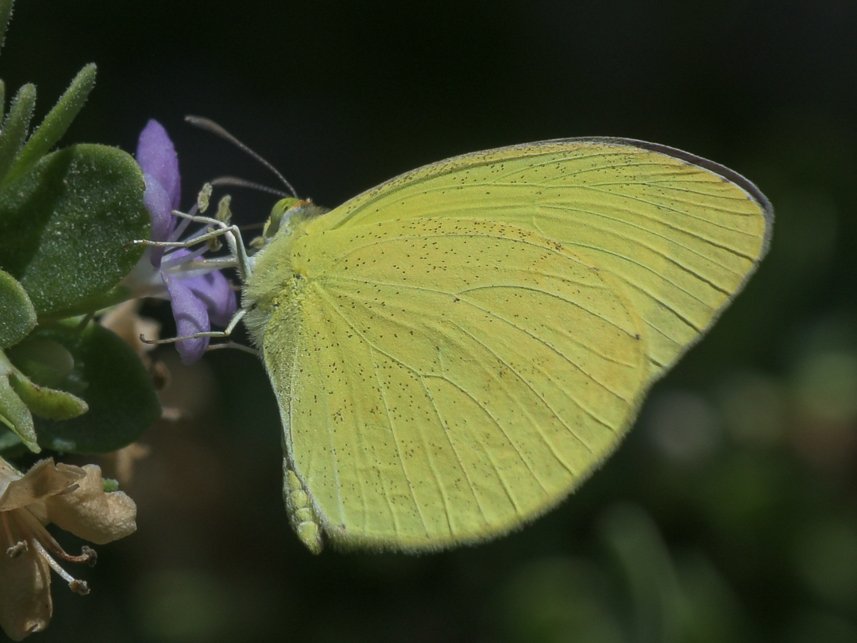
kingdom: Animalia
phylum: Arthropoda
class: Insecta
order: Lepidoptera
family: Pieridae
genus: Pyrisitia
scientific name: Pyrisitia nise
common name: Mimosa Yellow
